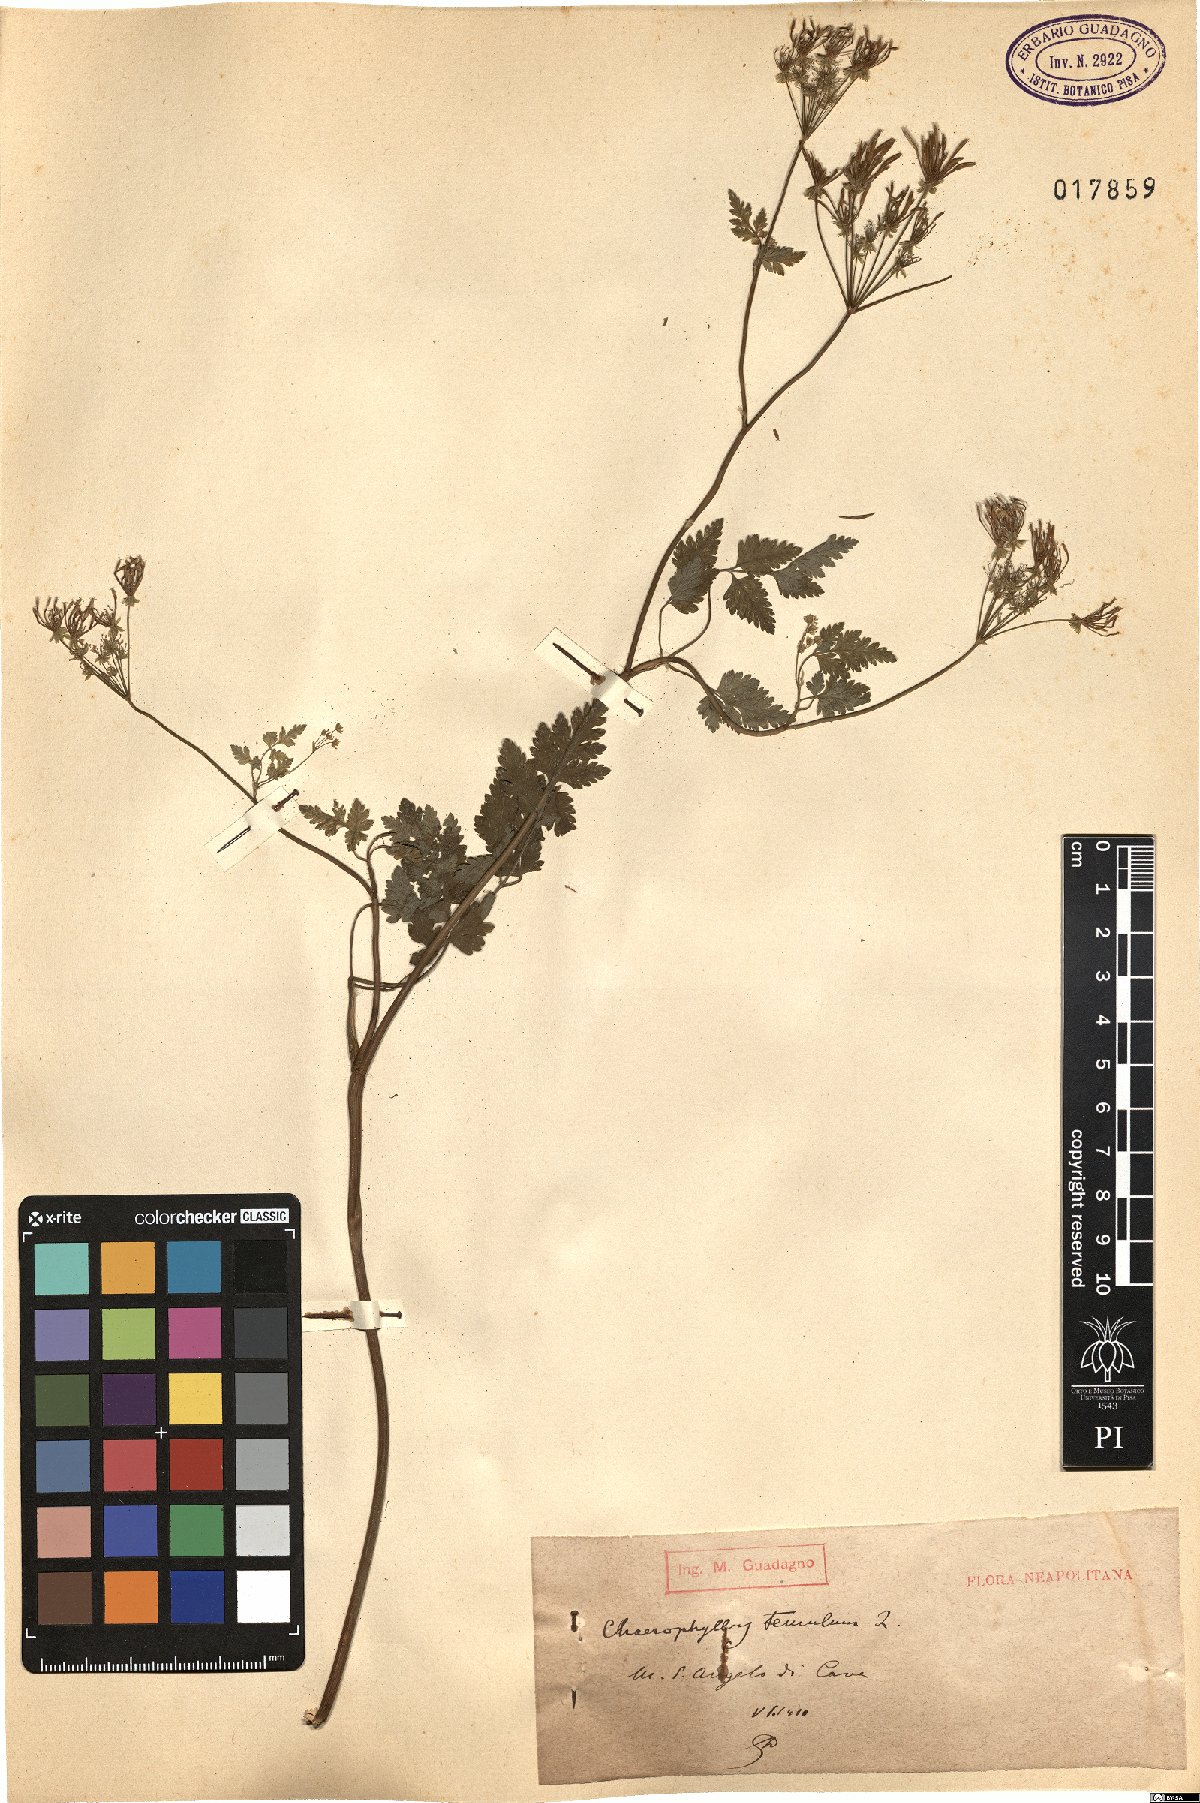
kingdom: Plantae
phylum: Tracheophyta
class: Magnoliopsida
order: Apiales
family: Apiaceae
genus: Chaerophyllum
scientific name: Chaerophyllum temulum
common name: Rough chervil
